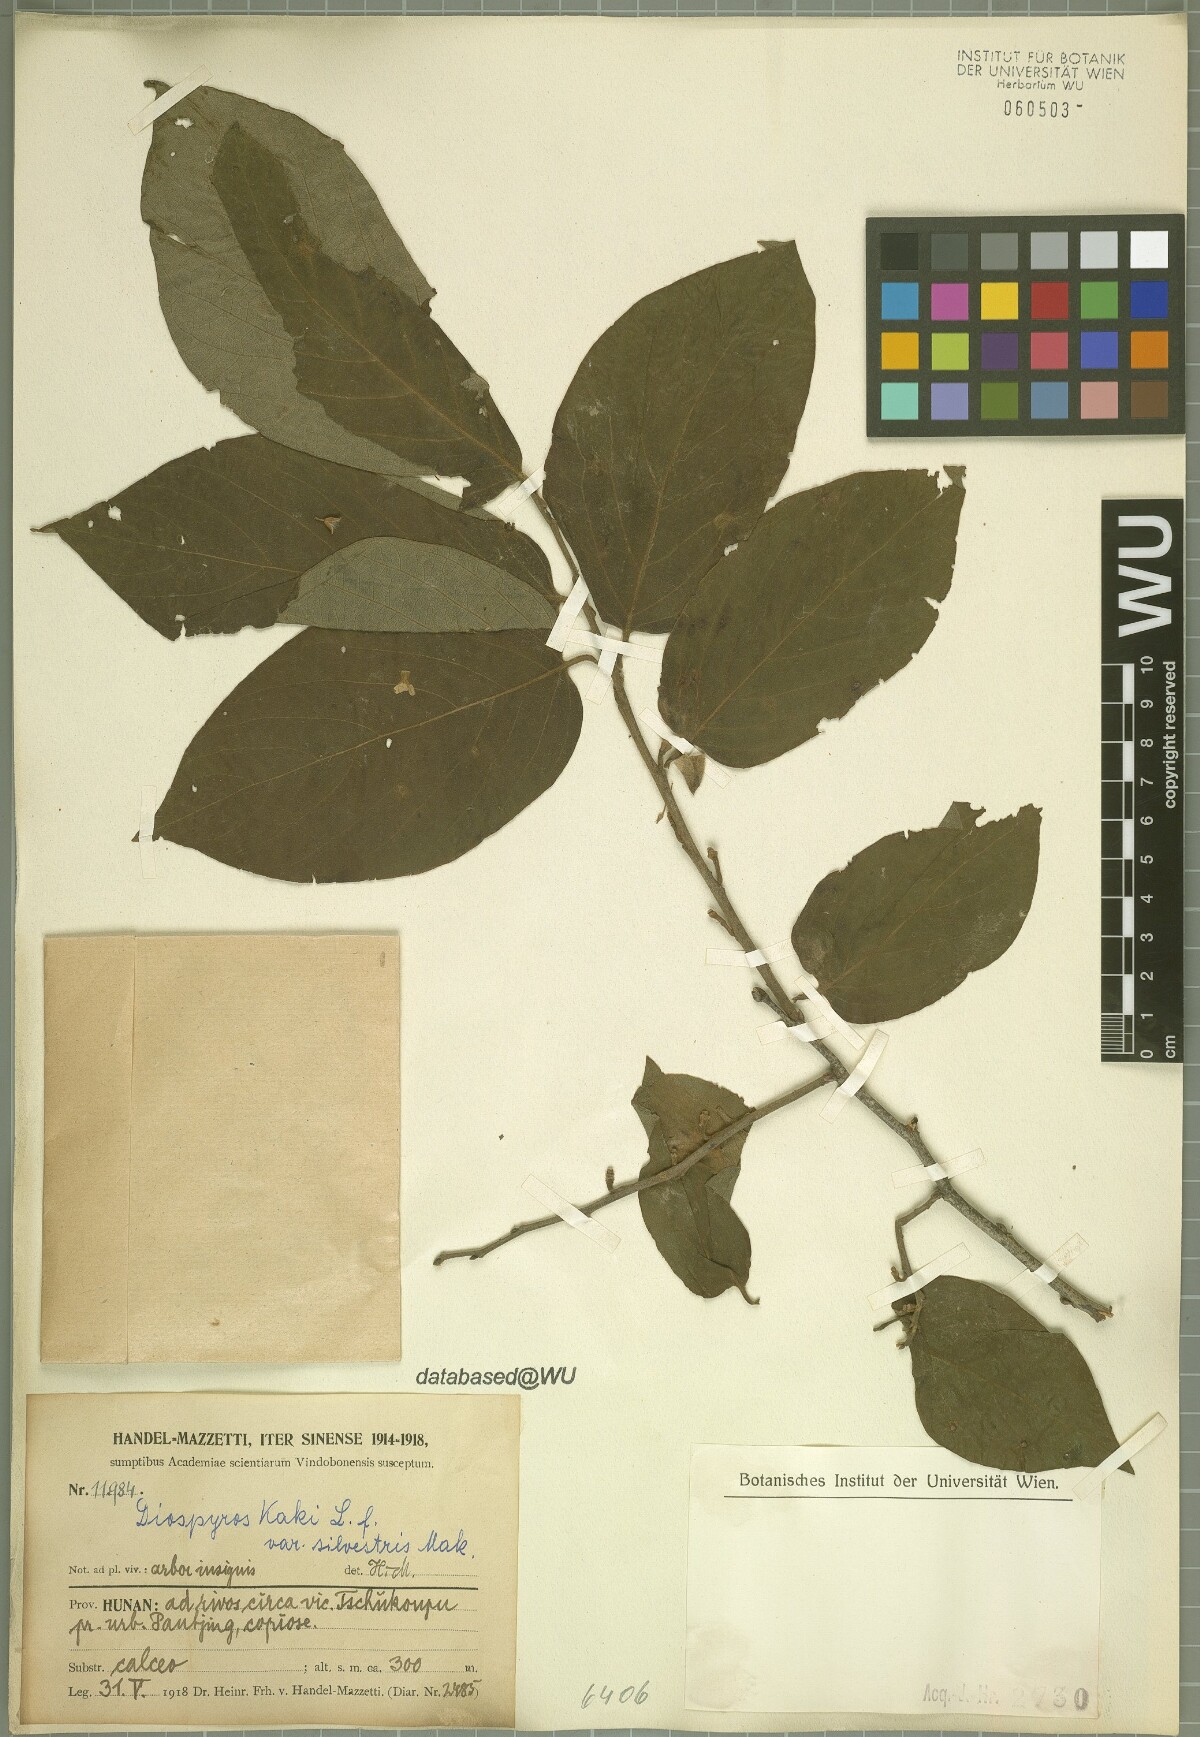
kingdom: Plantae
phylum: Tracheophyta
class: Magnoliopsida
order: Ericales
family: Ebenaceae
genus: Diospyros
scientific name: Diospyros kaki
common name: Persimmon
